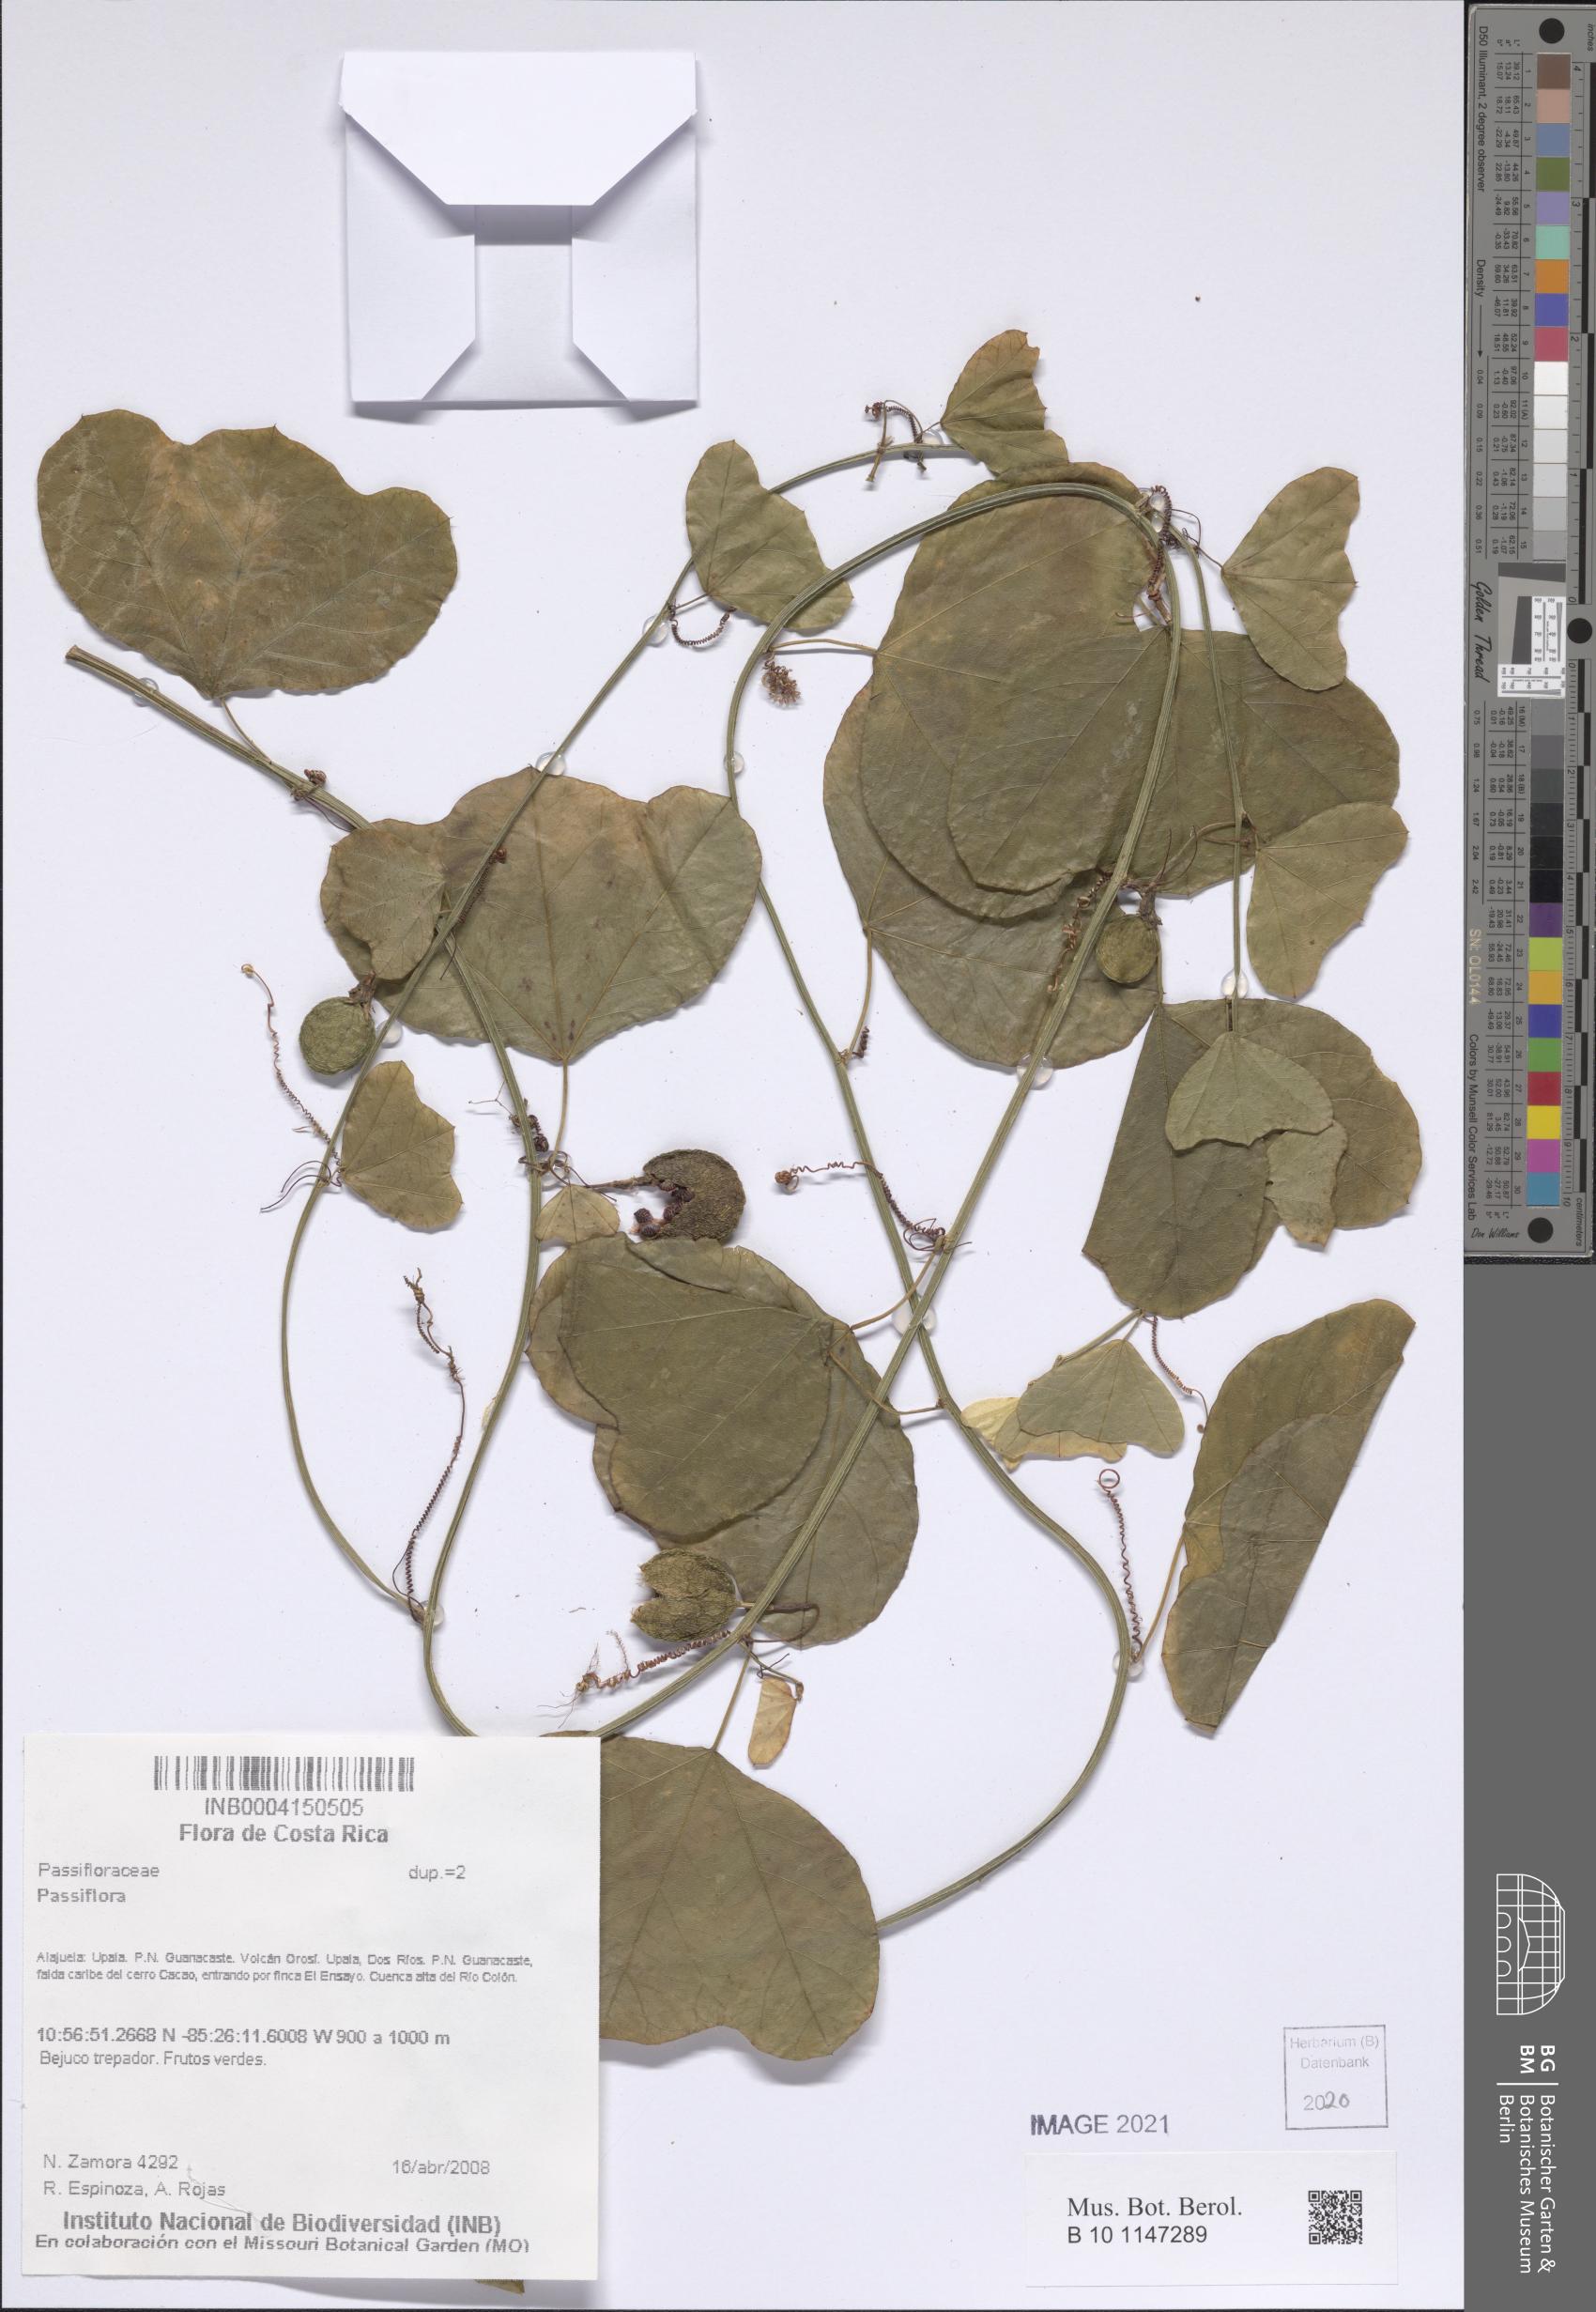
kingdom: Plantae
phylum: Tracheophyta
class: Magnoliopsida
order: Malpighiales
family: Passifloraceae
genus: Passiflora
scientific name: Passiflora
